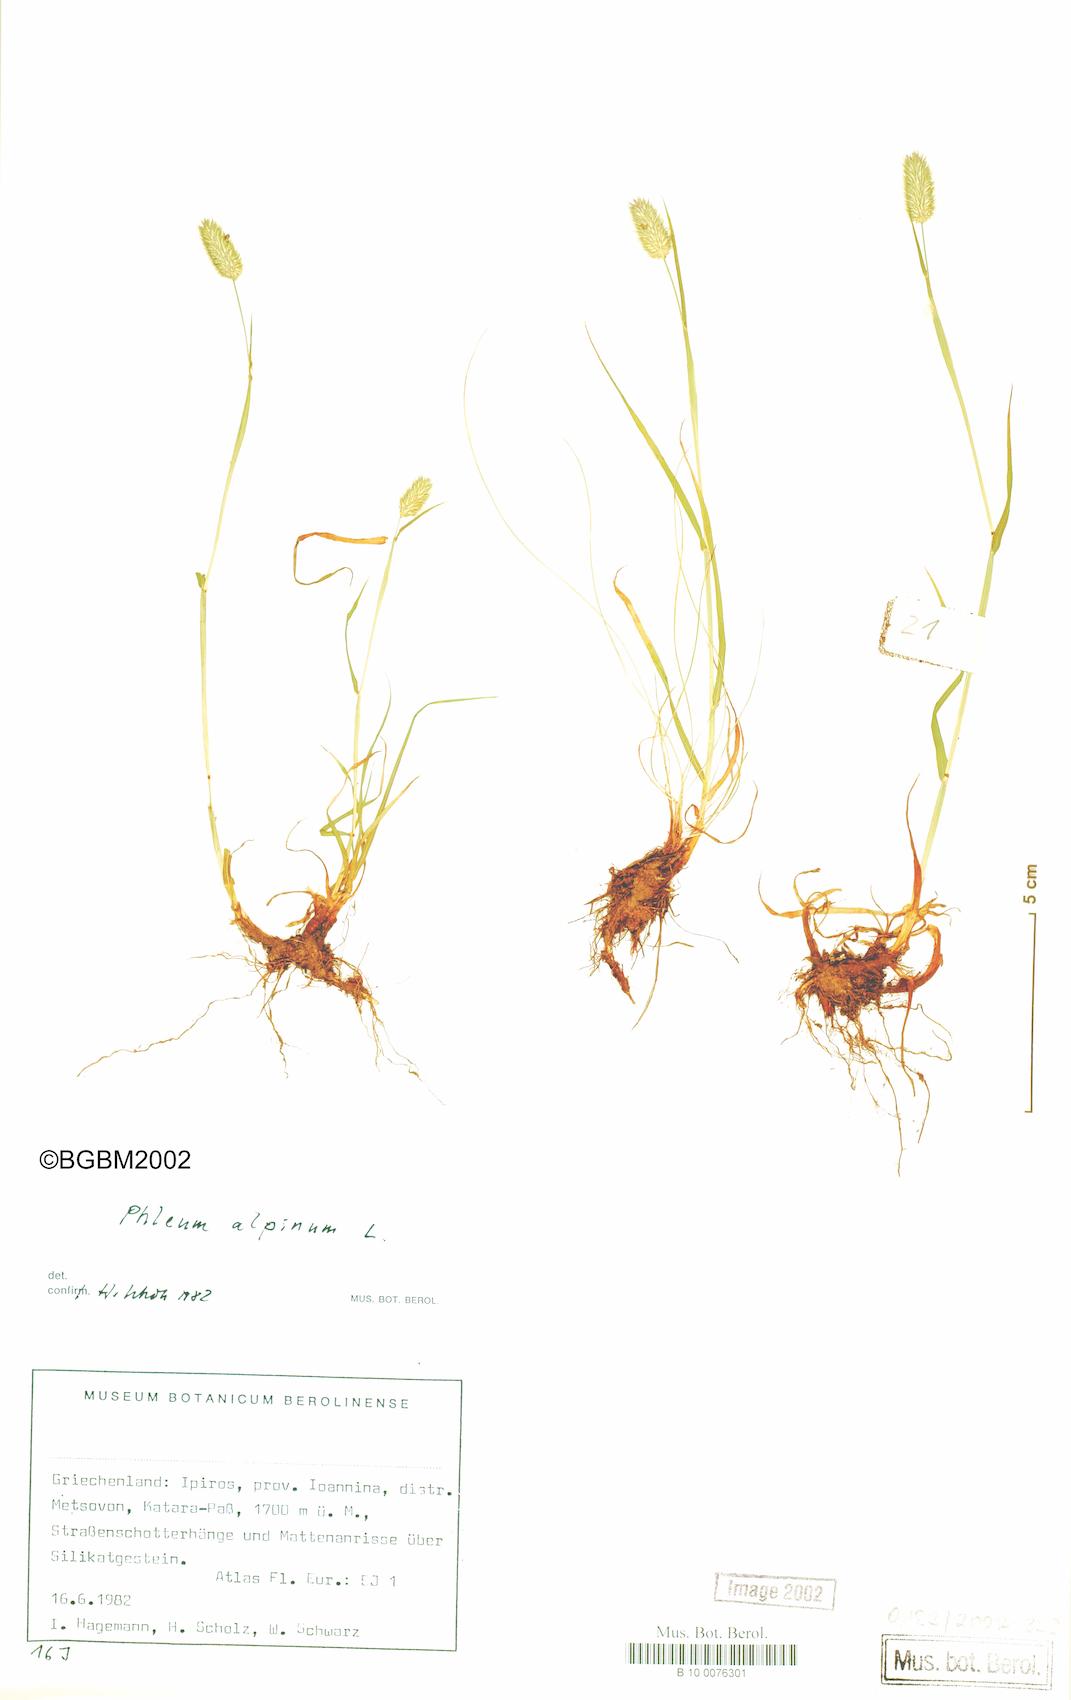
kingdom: Plantae
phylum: Tracheophyta
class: Liliopsida
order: Poales
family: Poaceae
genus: Phleum
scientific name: Phleum alpinum
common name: Alpine cat's-tail
